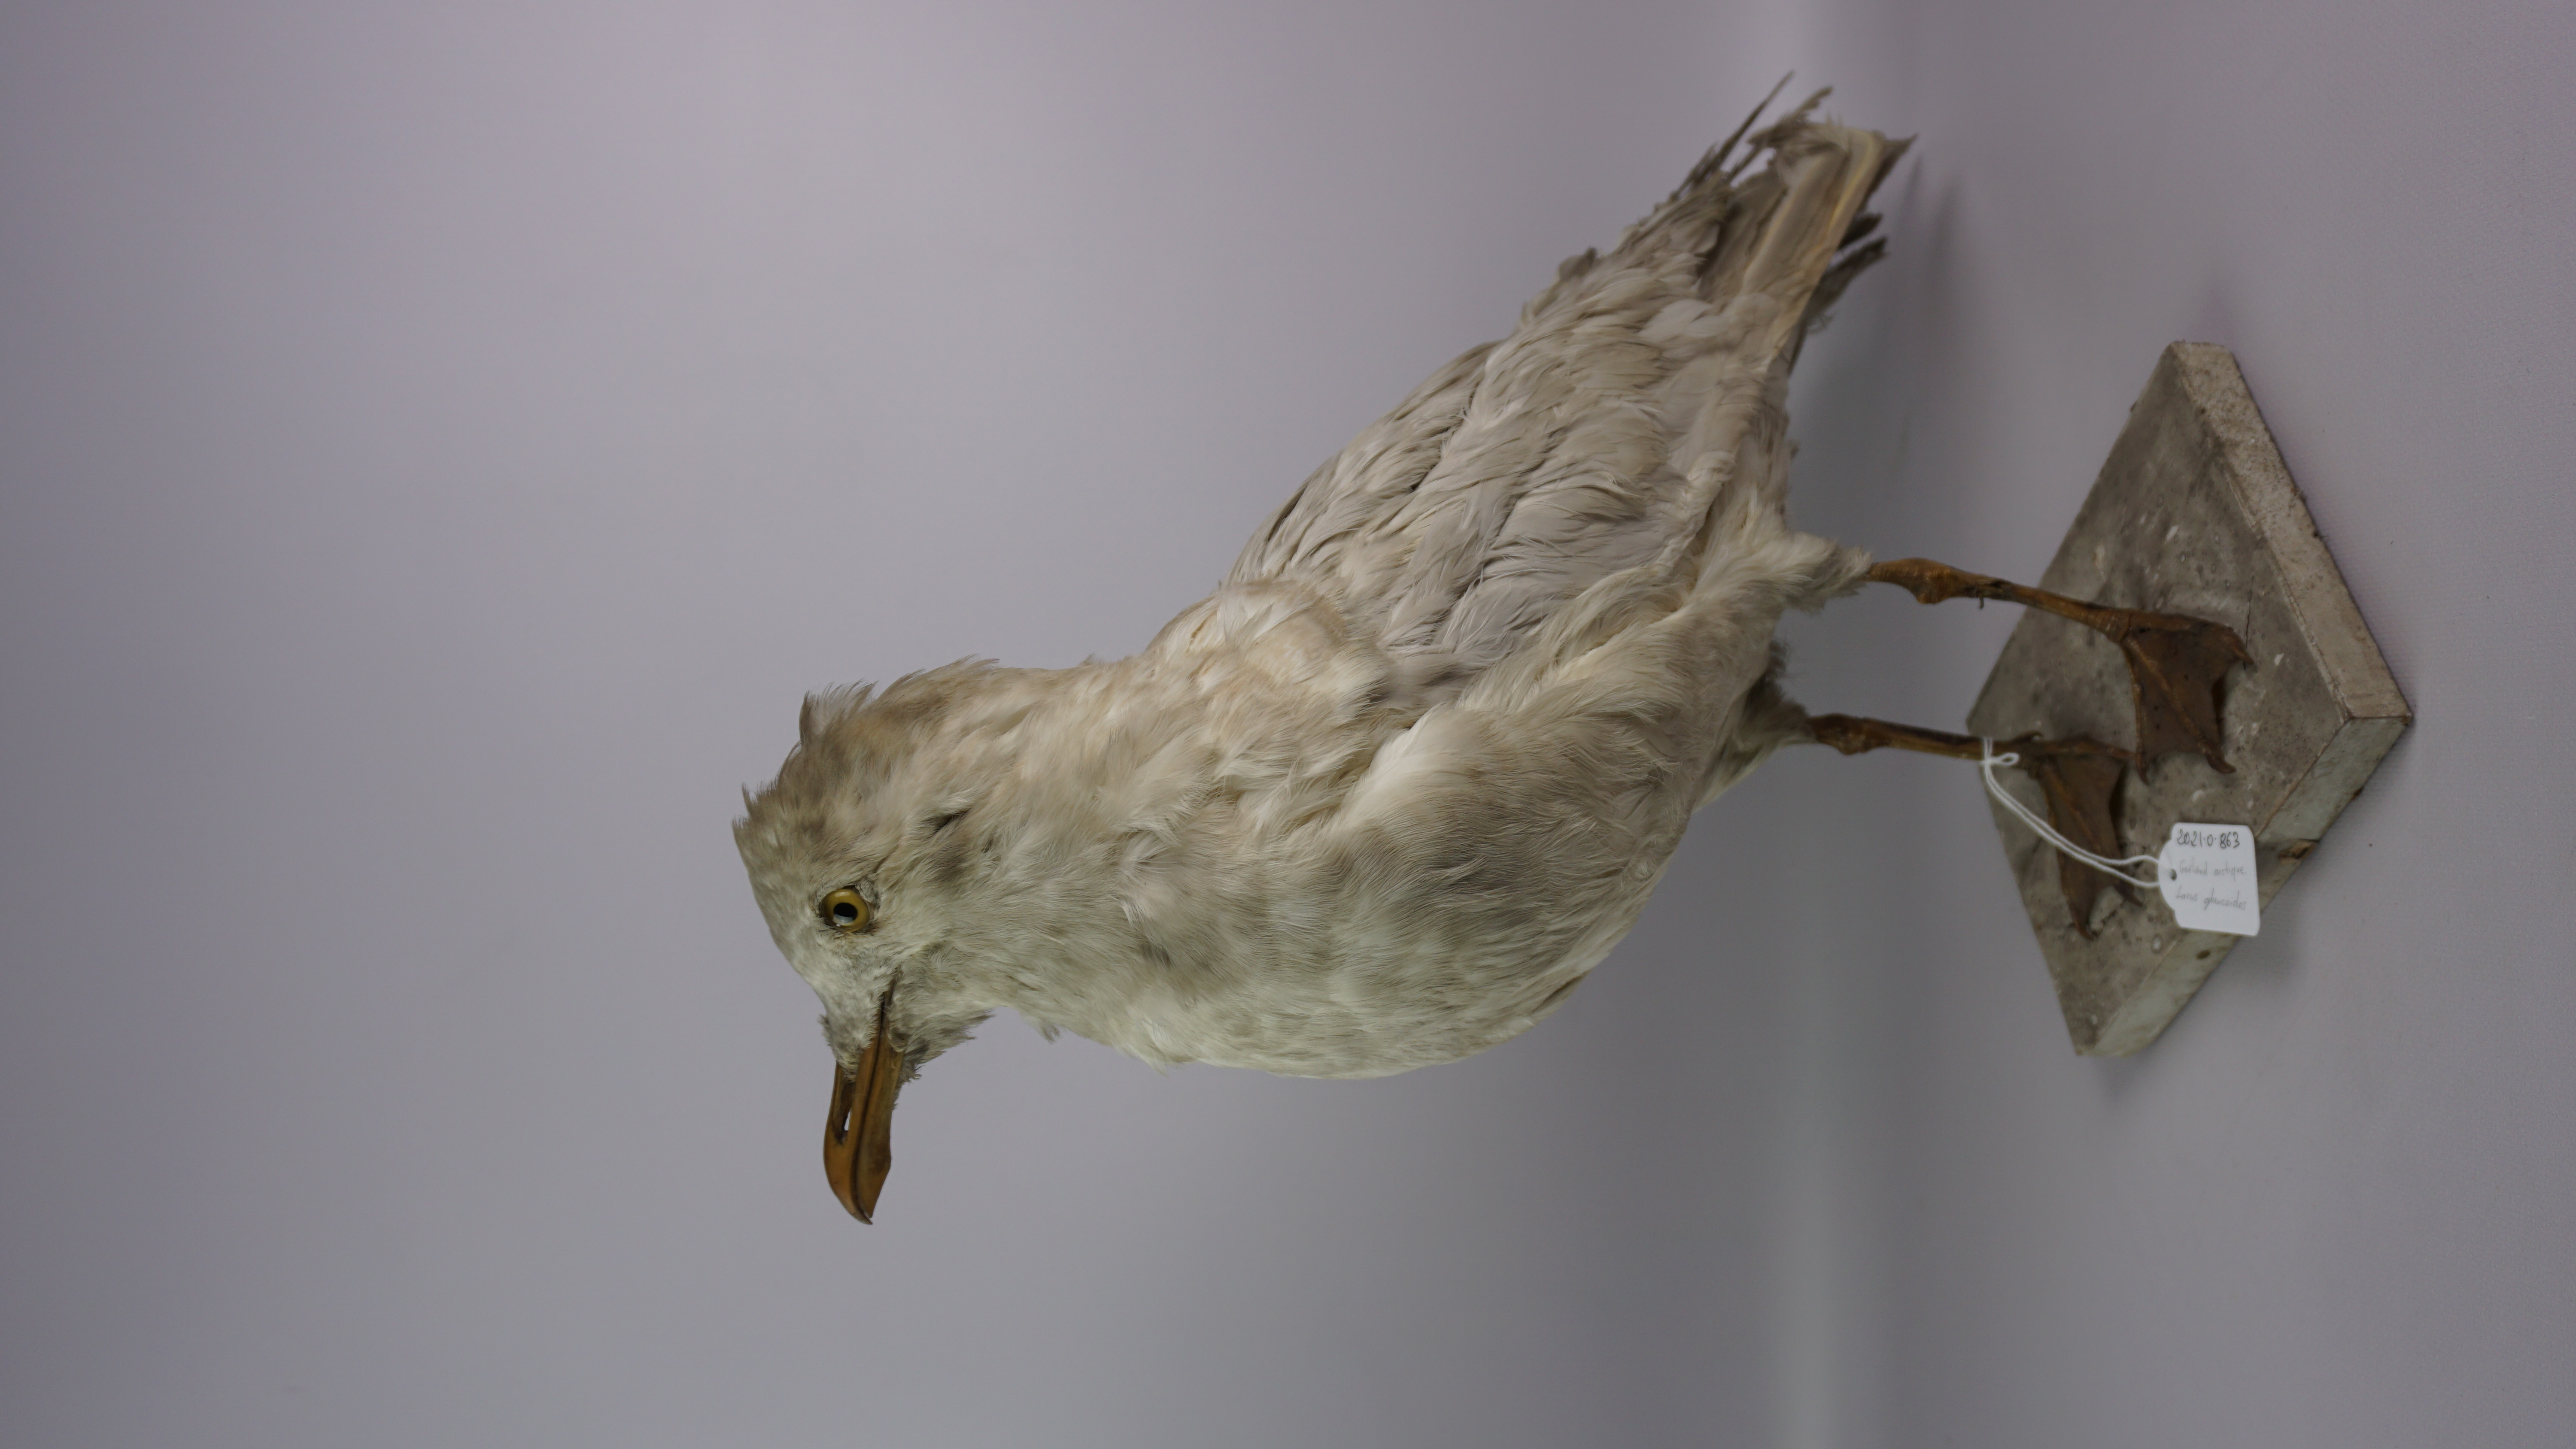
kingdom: Animalia
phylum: Chordata
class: Aves
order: Charadriiformes
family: Laridae
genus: Larus
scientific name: Larus glaucoides
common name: Iceland gull
